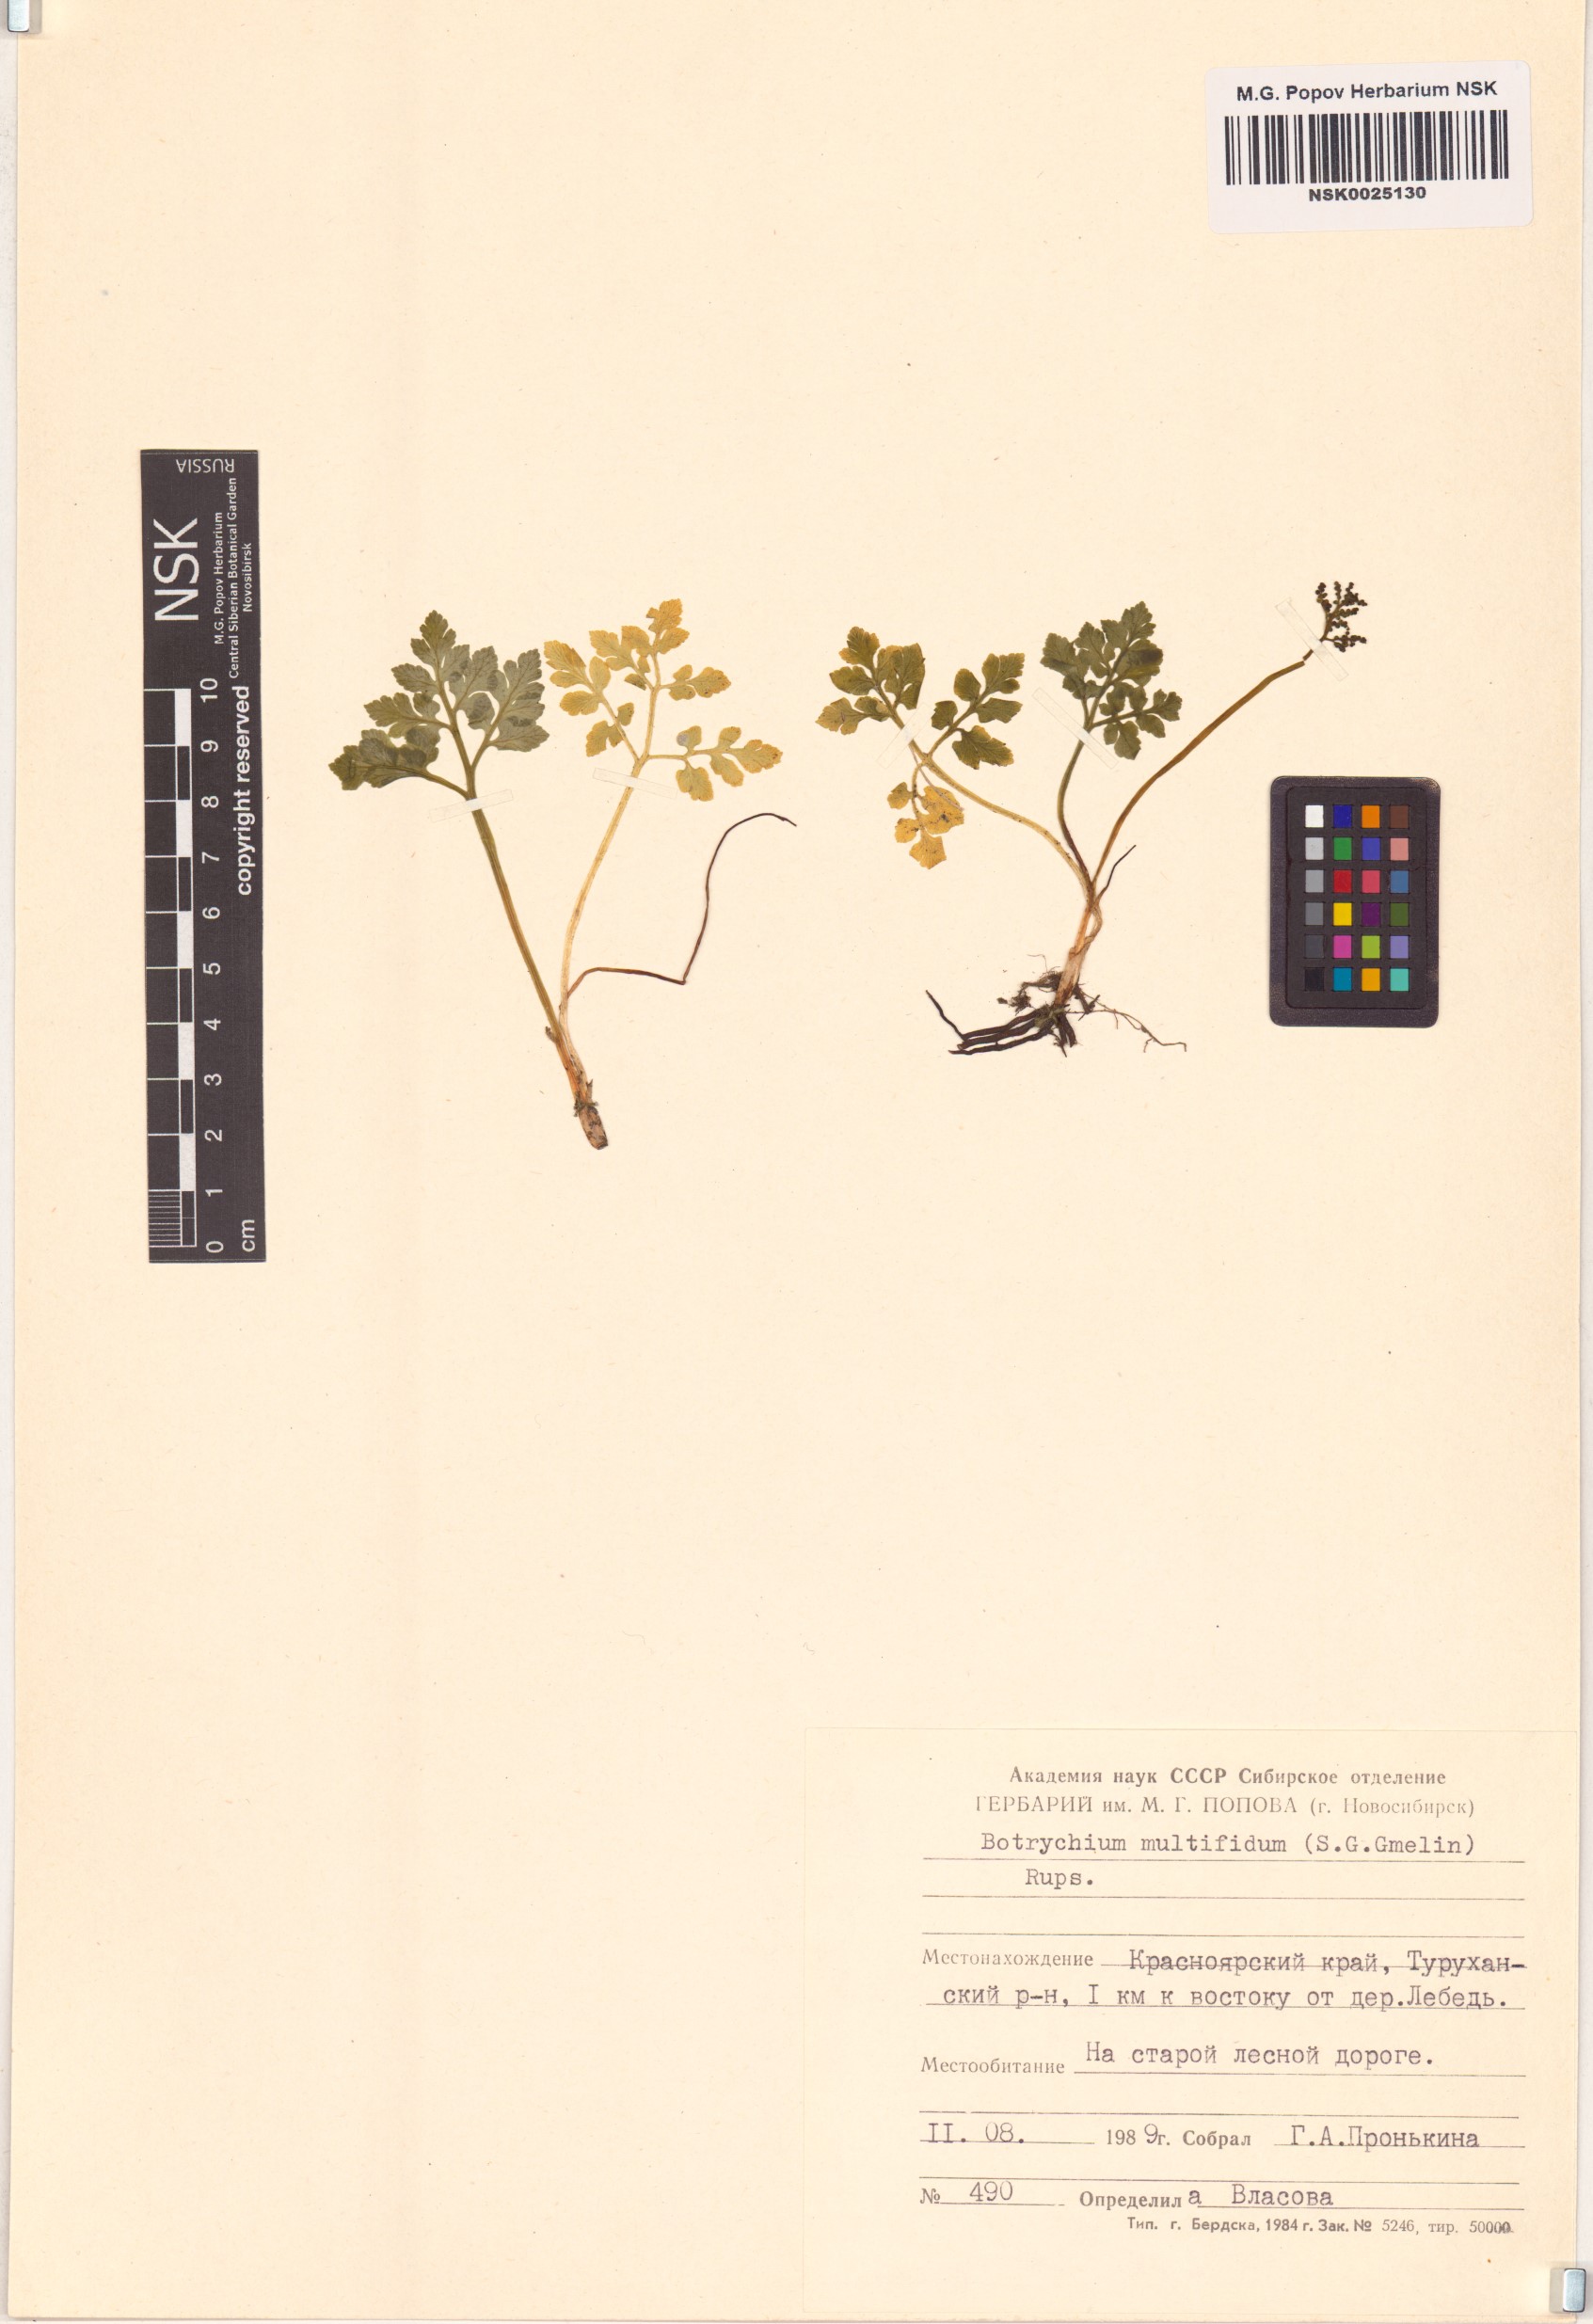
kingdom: Plantae
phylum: Tracheophyta
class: Polypodiopsida
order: Ophioglossales
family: Ophioglossaceae
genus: Sceptridium
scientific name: Sceptridium multifidum
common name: Leathery grape fern
